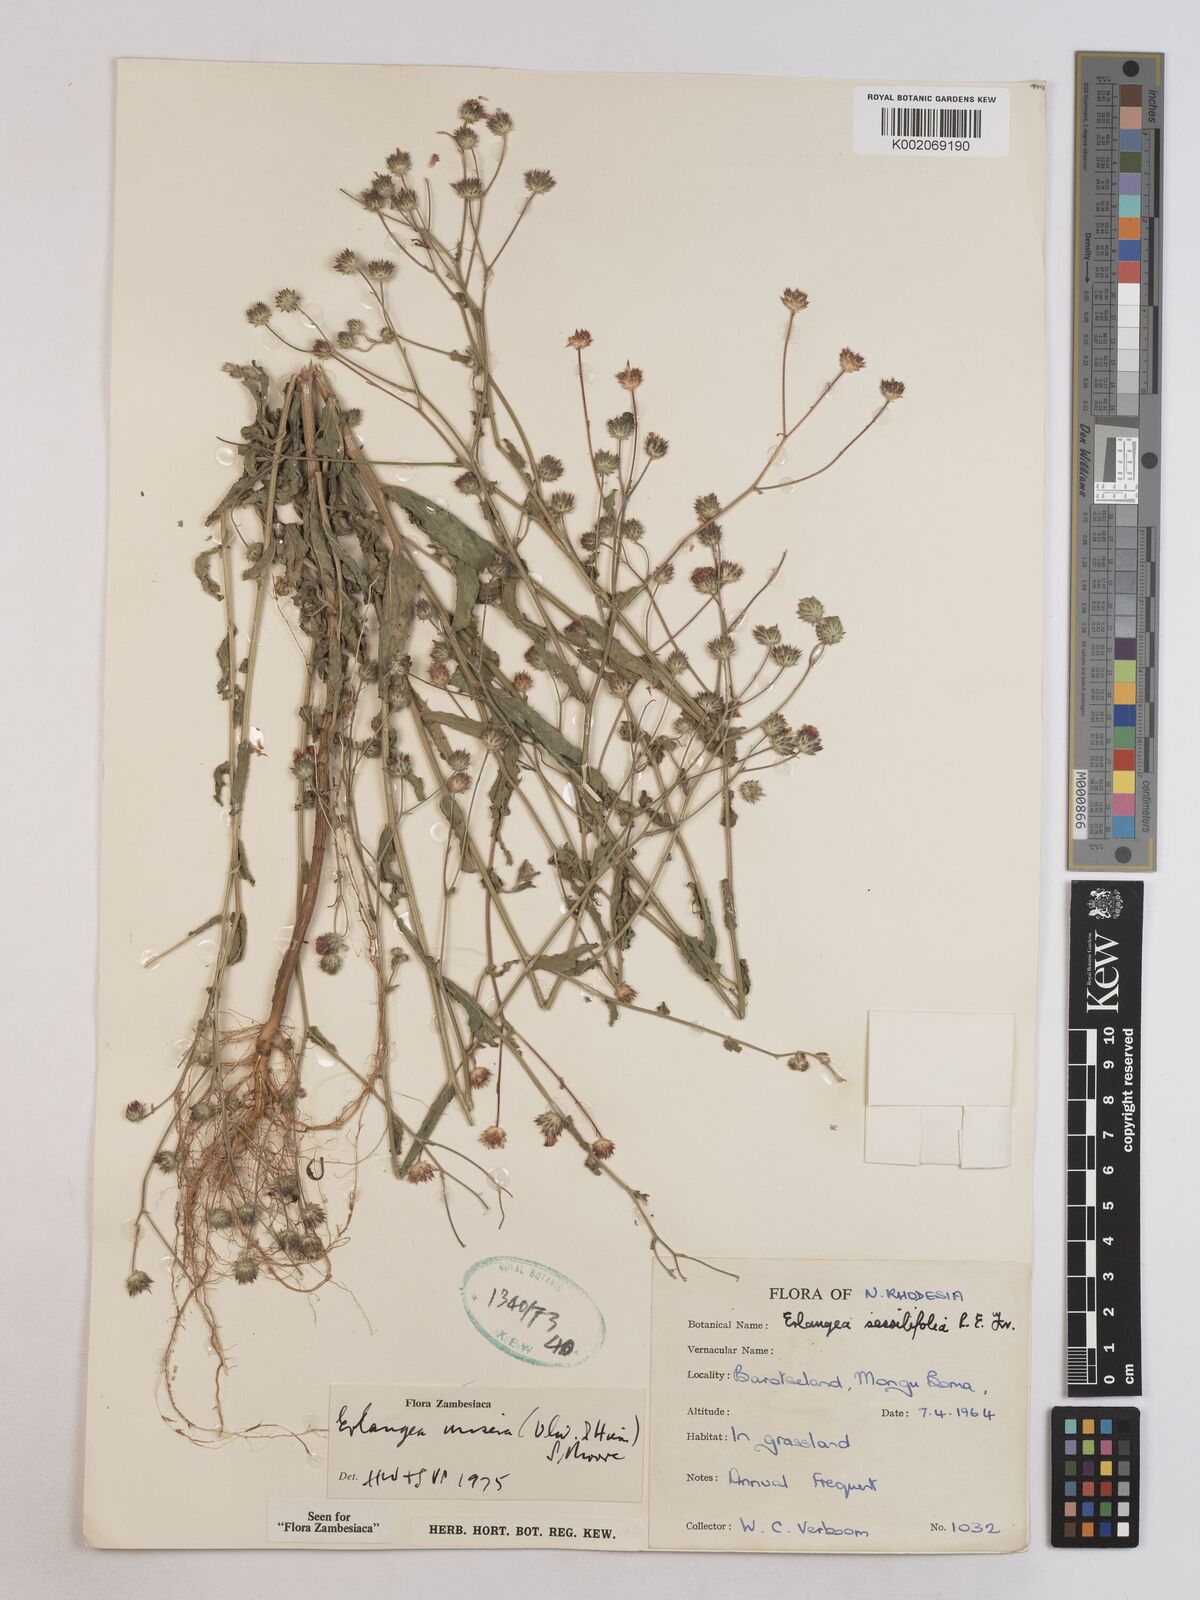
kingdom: Plantae
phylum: Tracheophyta
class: Magnoliopsida
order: Asterales
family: Asteraceae
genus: Erlangea
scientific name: Erlangea misera
